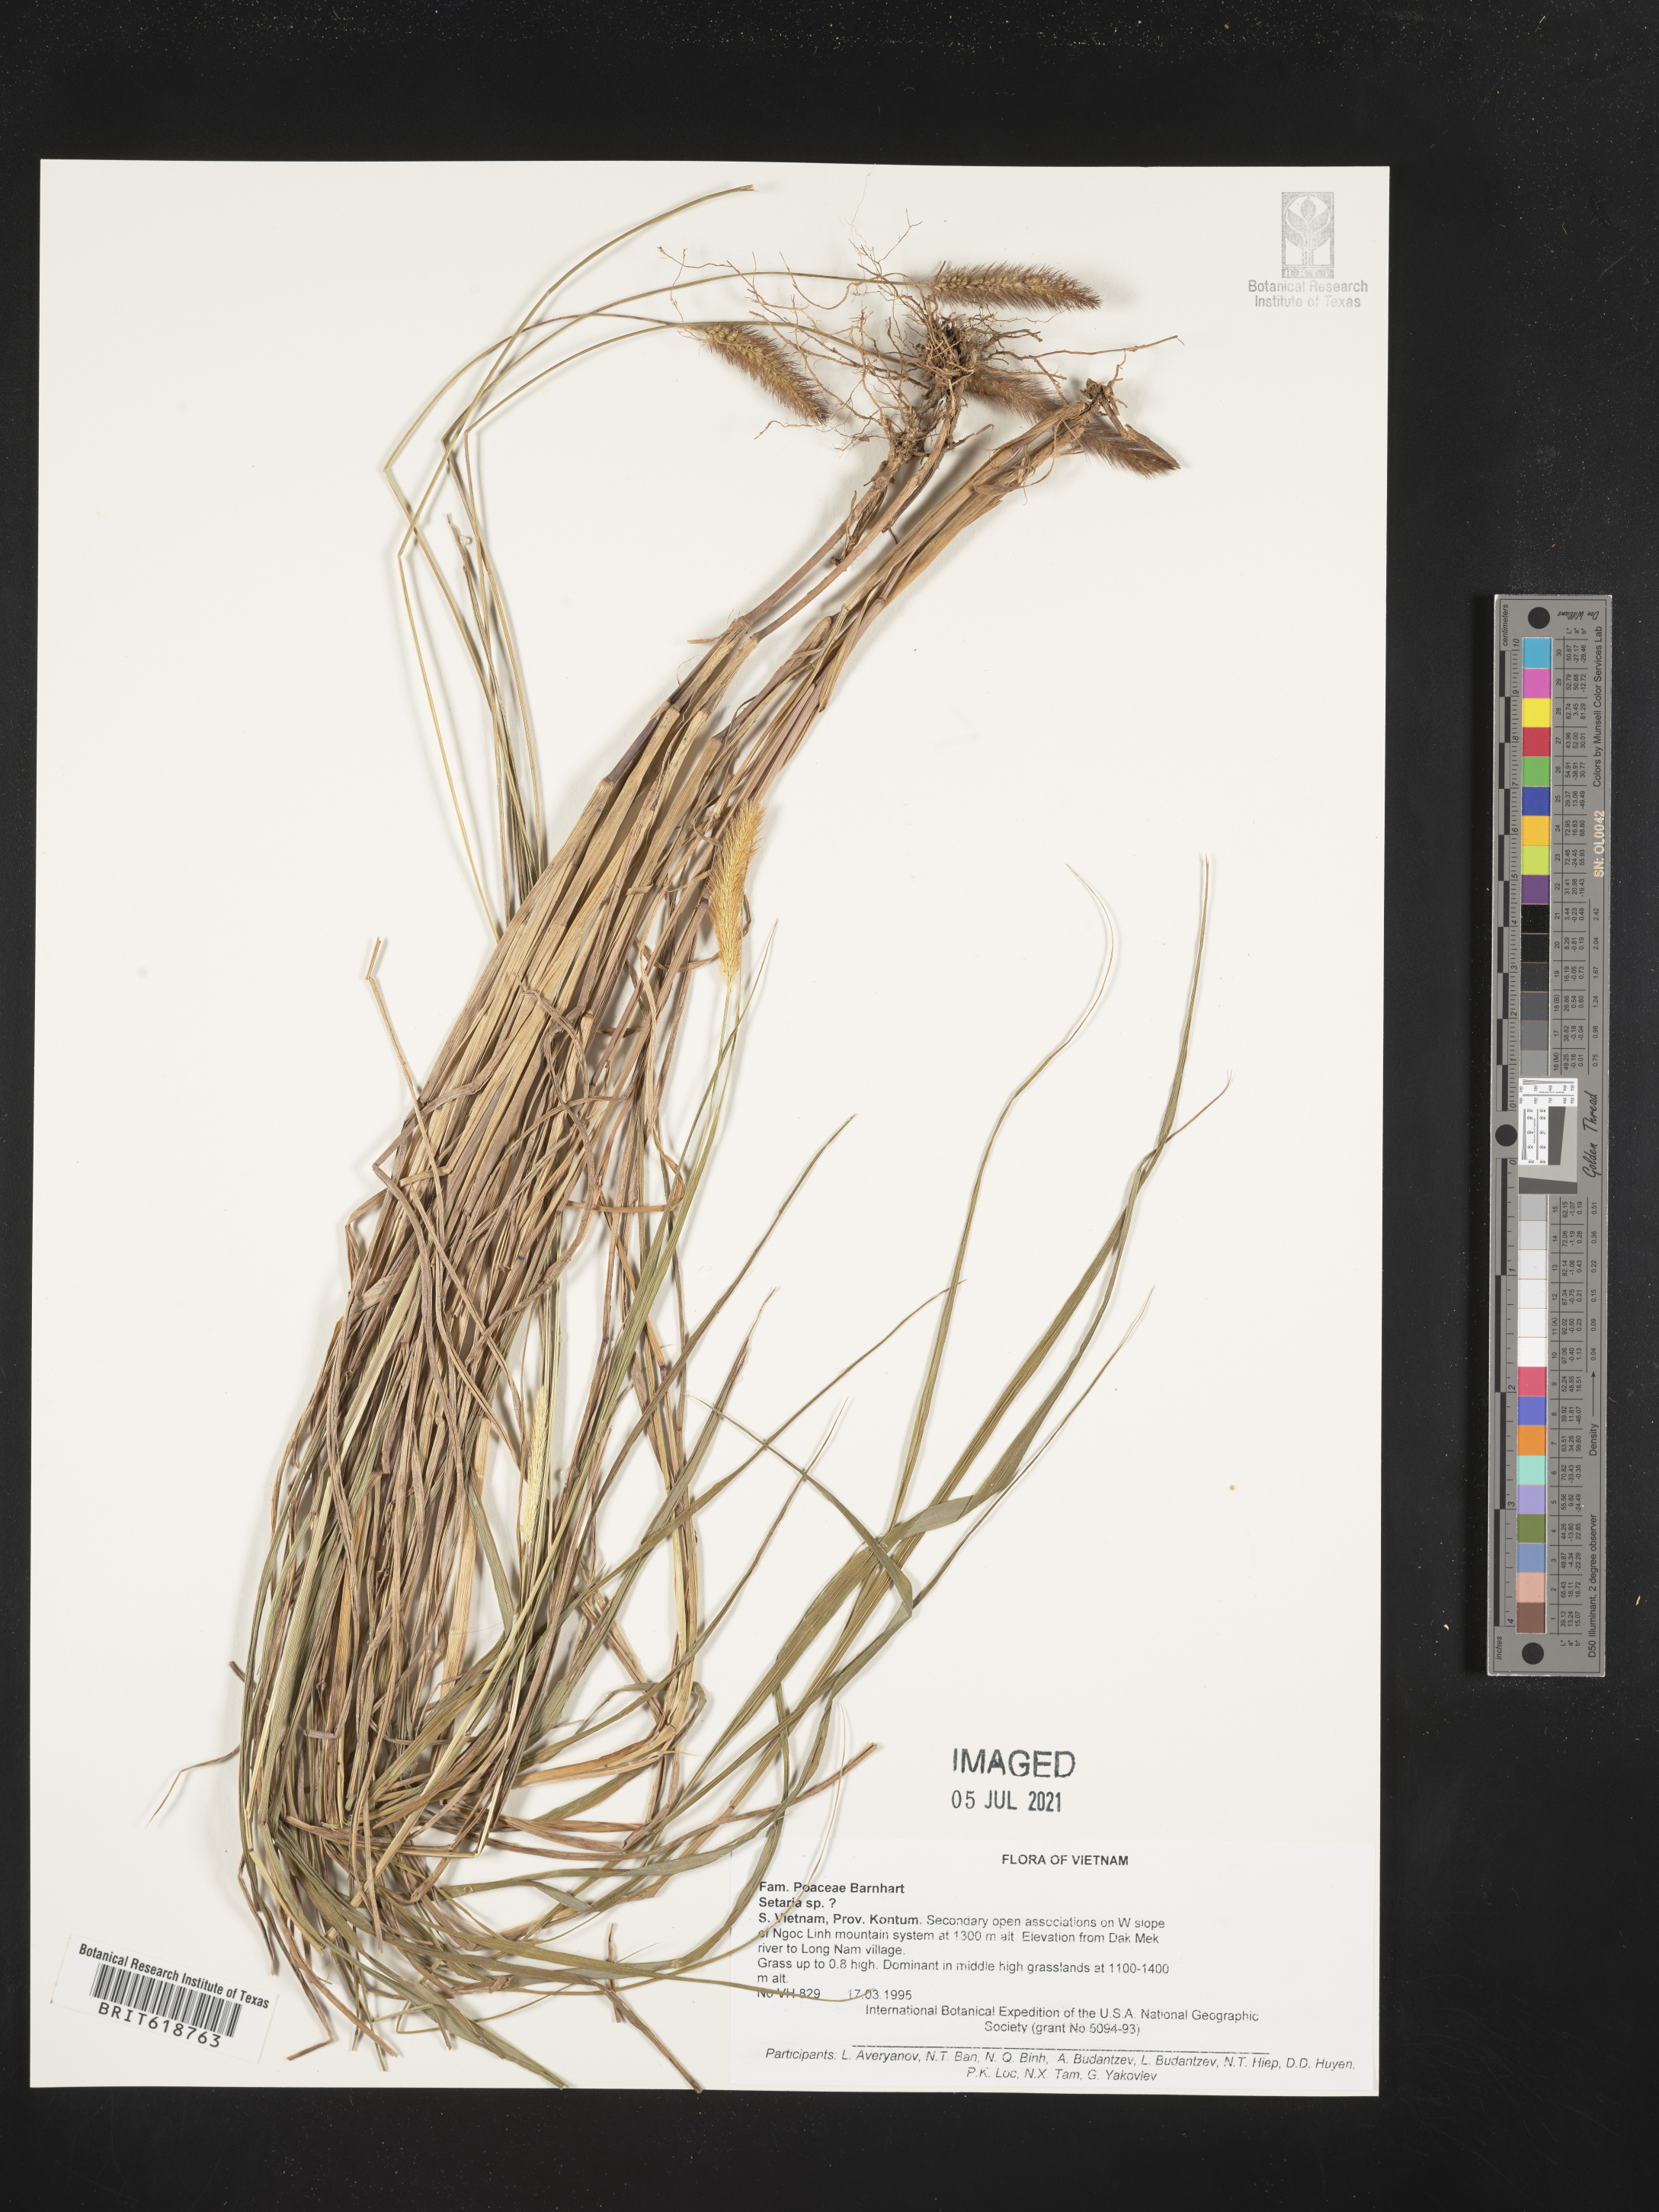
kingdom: Plantae
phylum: Tracheophyta
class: Liliopsida
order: Poales
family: Poaceae
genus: Setaria
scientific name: Setaria
